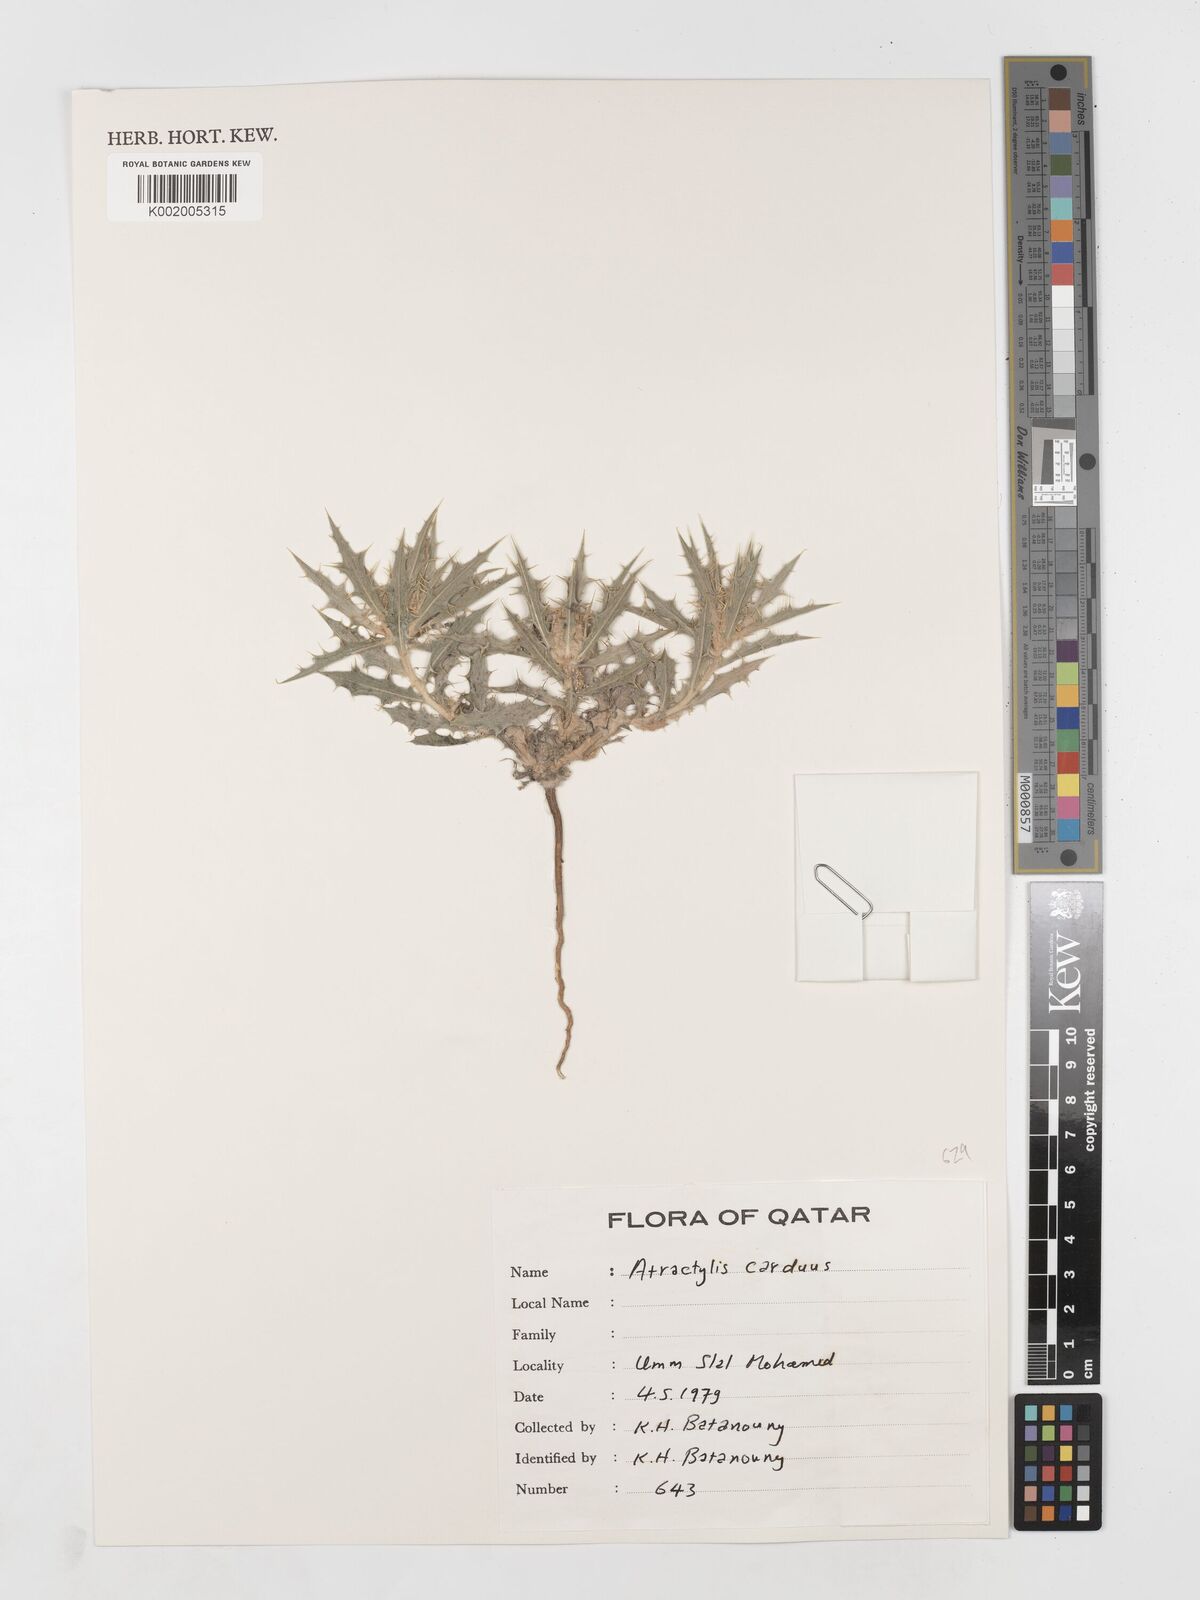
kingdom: Plantae
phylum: Tracheophyta
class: Magnoliopsida
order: Asterales
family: Asteraceae
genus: Atractylis
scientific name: Atractylis carduus
